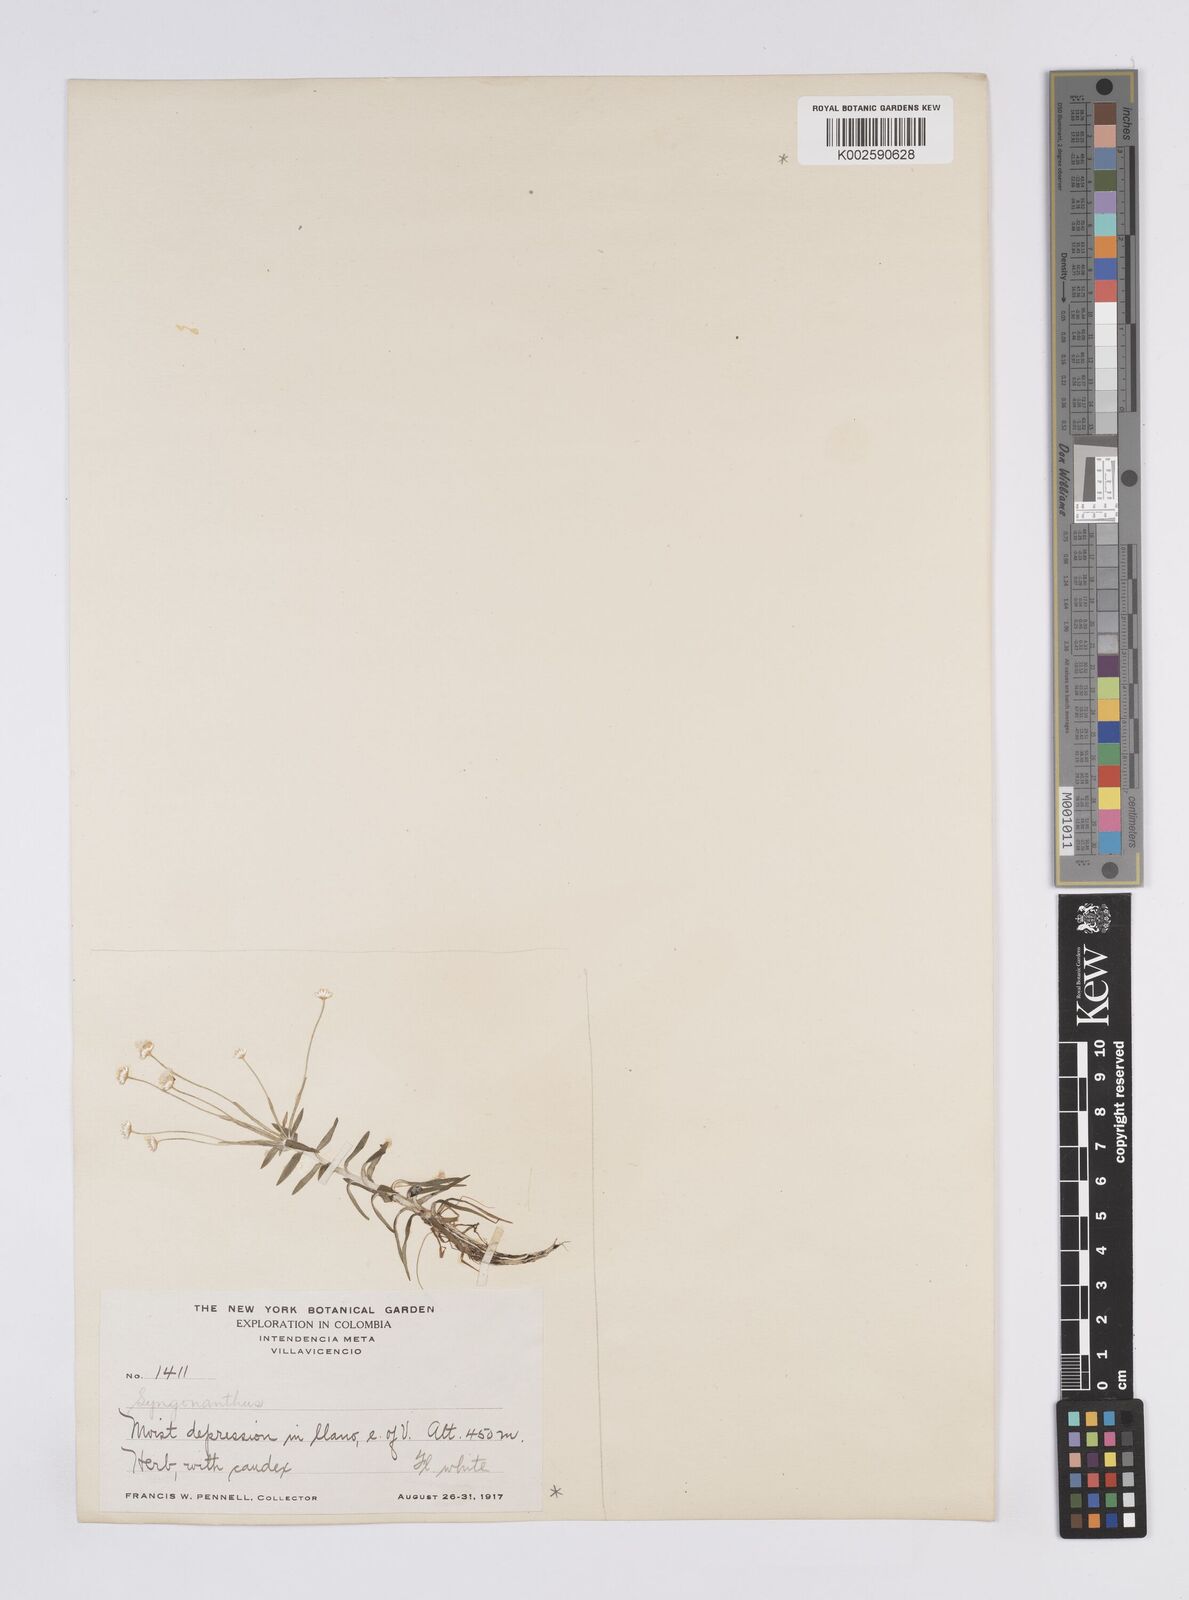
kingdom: Plantae
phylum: Tracheophyta
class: Liliopsida
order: Poales
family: Eriocaulaceae
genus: Syngonanthus
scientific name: Syngonanthus caulescens
